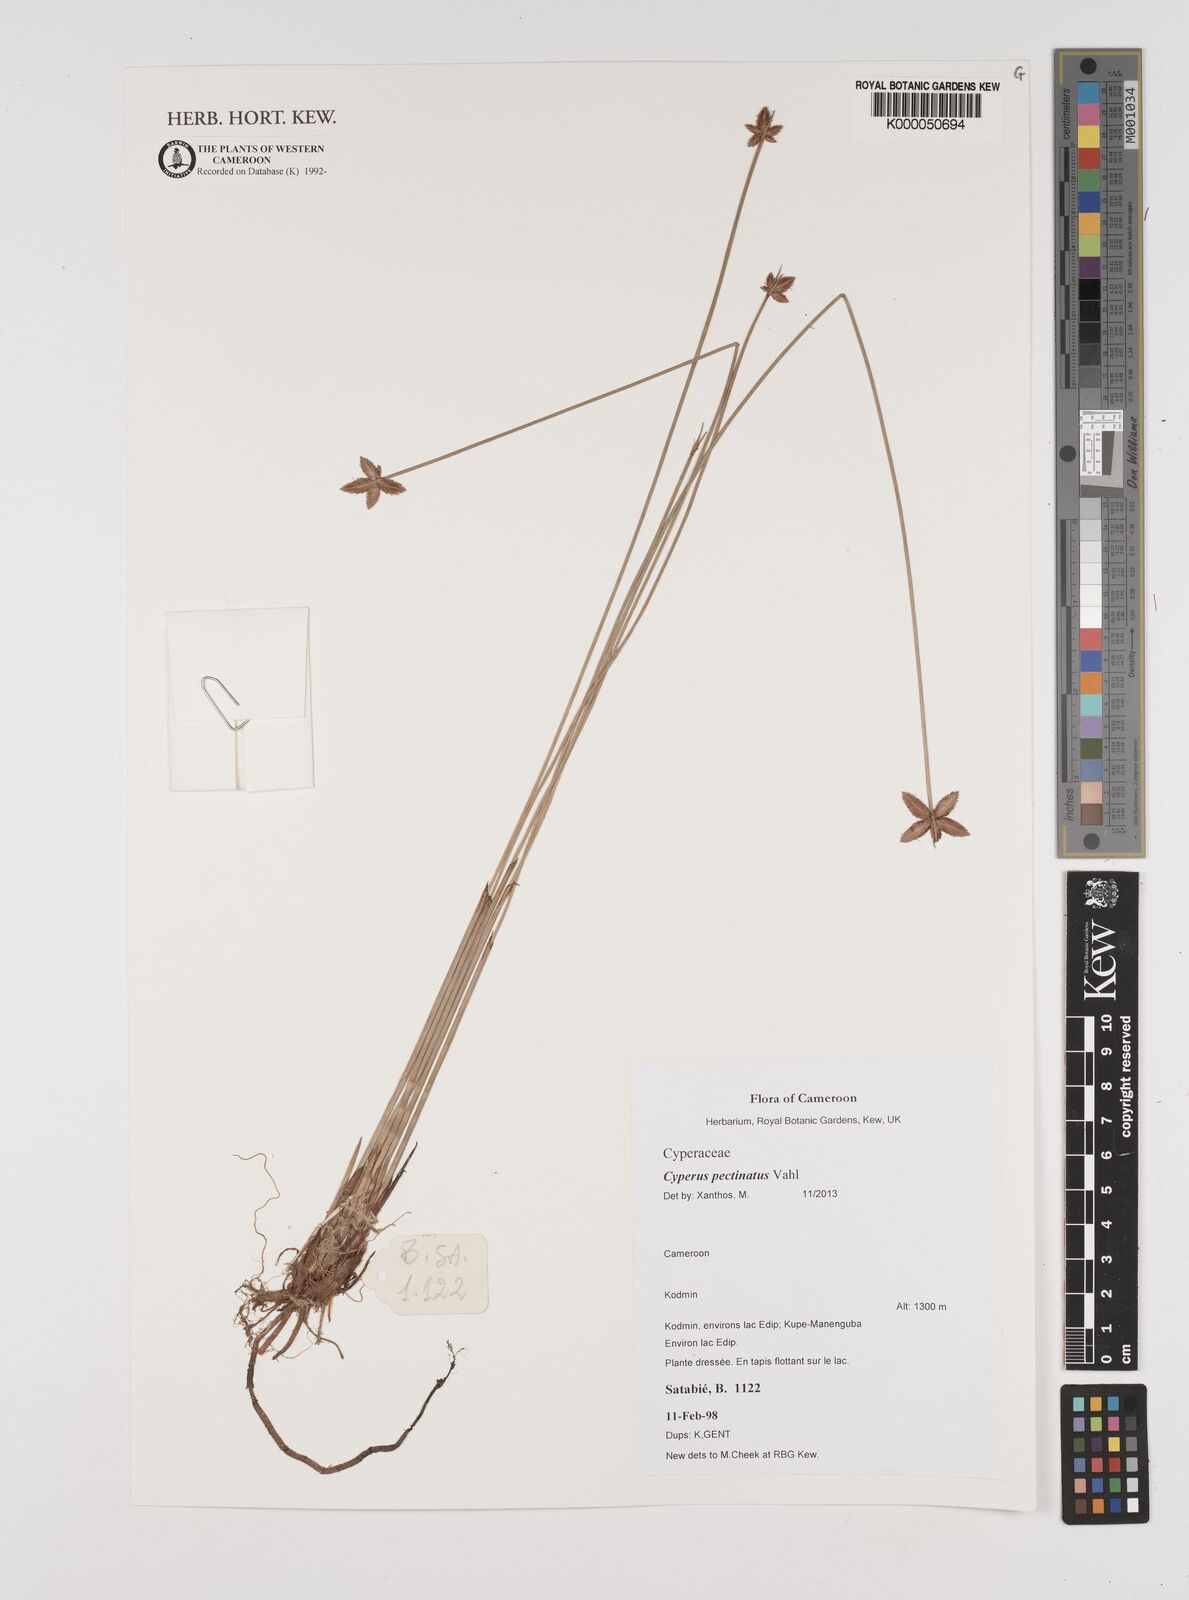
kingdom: Plantae
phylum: Tracheophyta
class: Liliopsida
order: Poales
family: Cyperaceae
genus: Cyperus
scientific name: Cyperus pectinatus
